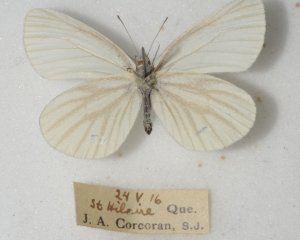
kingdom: Animalia
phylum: Arthropoda
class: Insecta
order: Lepidoptera
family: Pieridae
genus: Pieris
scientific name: Pieris oleracea
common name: Mustard White
